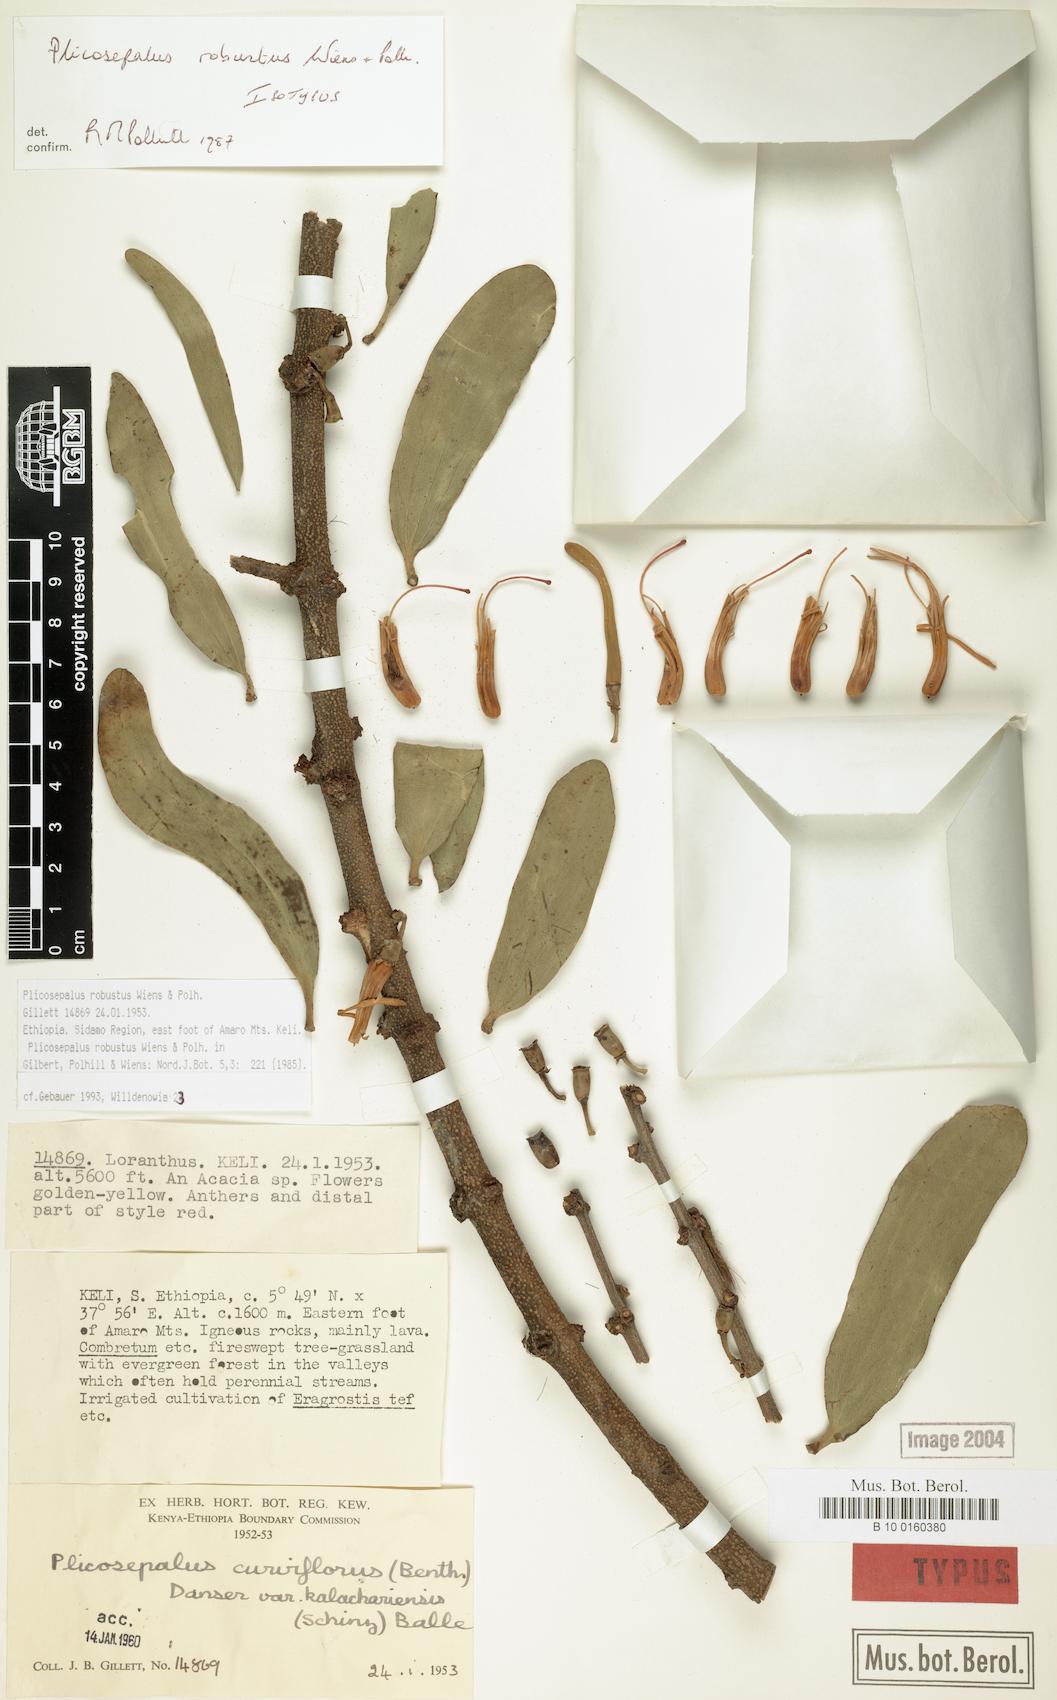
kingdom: Plantae
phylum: Tracheophyta
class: Magnoliopsida
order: Santalales
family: Loranthaceae
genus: Plicosepalus
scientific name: Plicosepalus robustus
